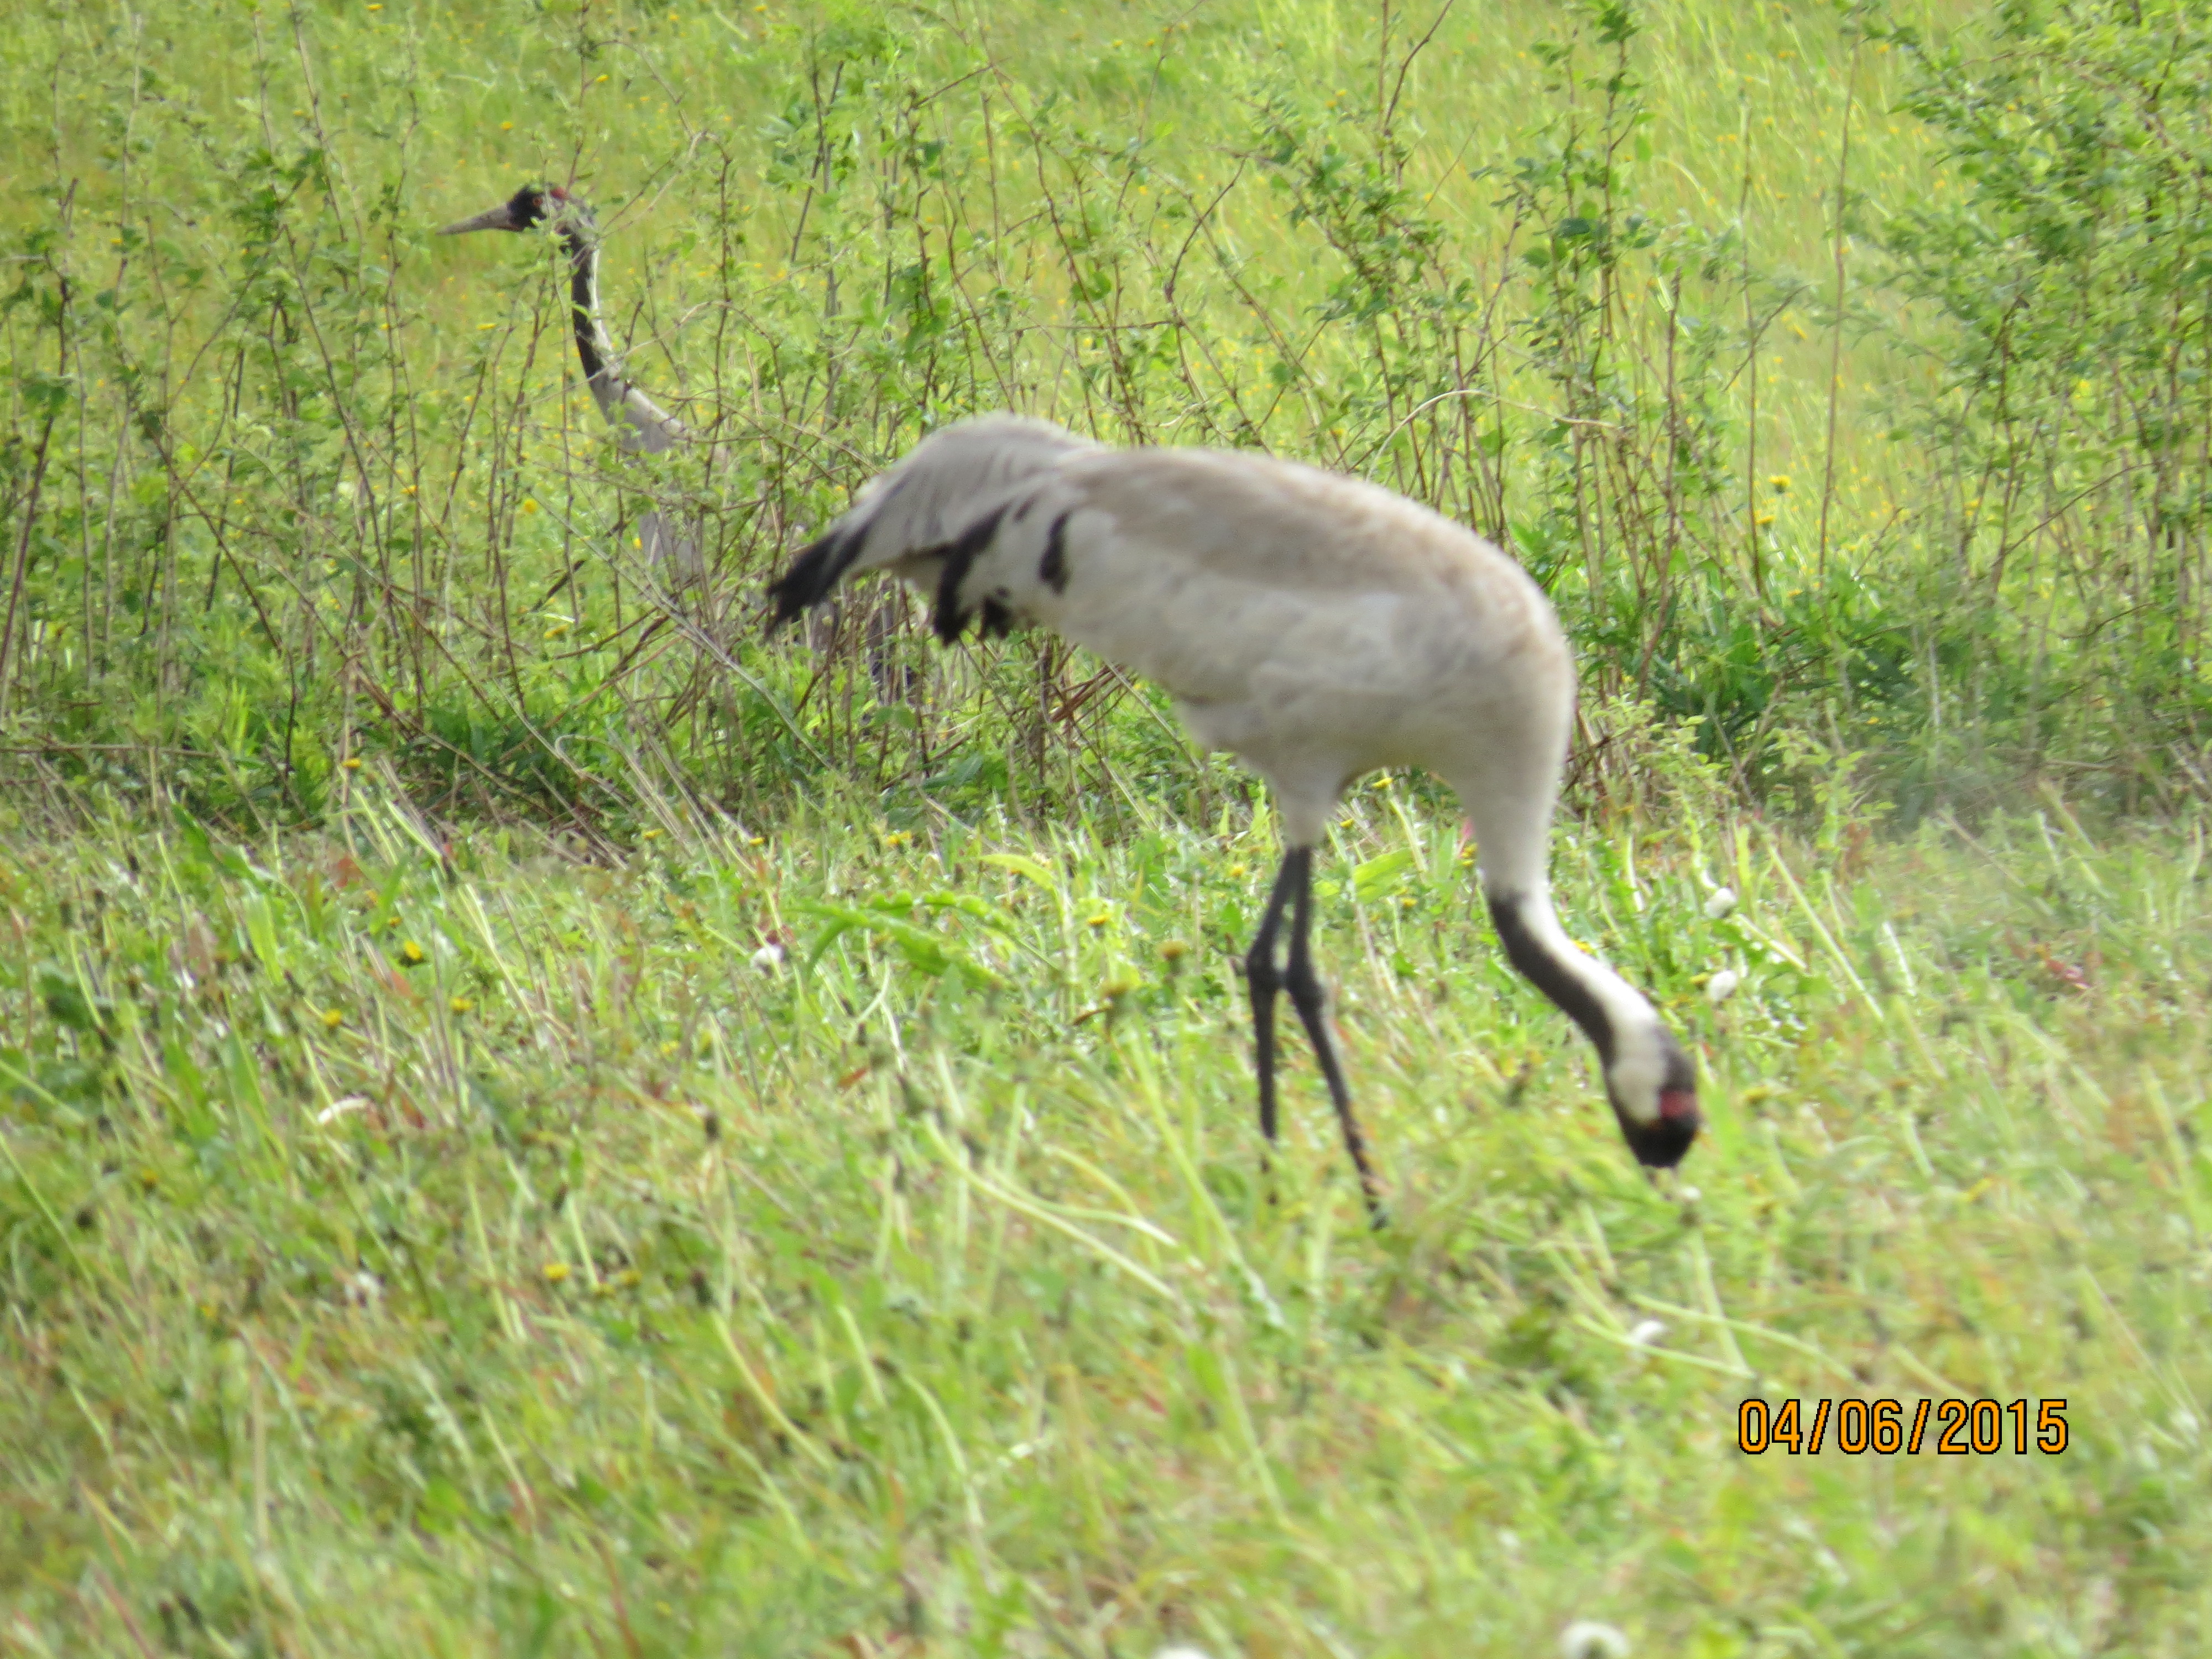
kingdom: Animalia
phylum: Chordata
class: Aves
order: Gruiformes
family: Gruidae
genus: Grus
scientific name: Grus grus
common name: Common crane
